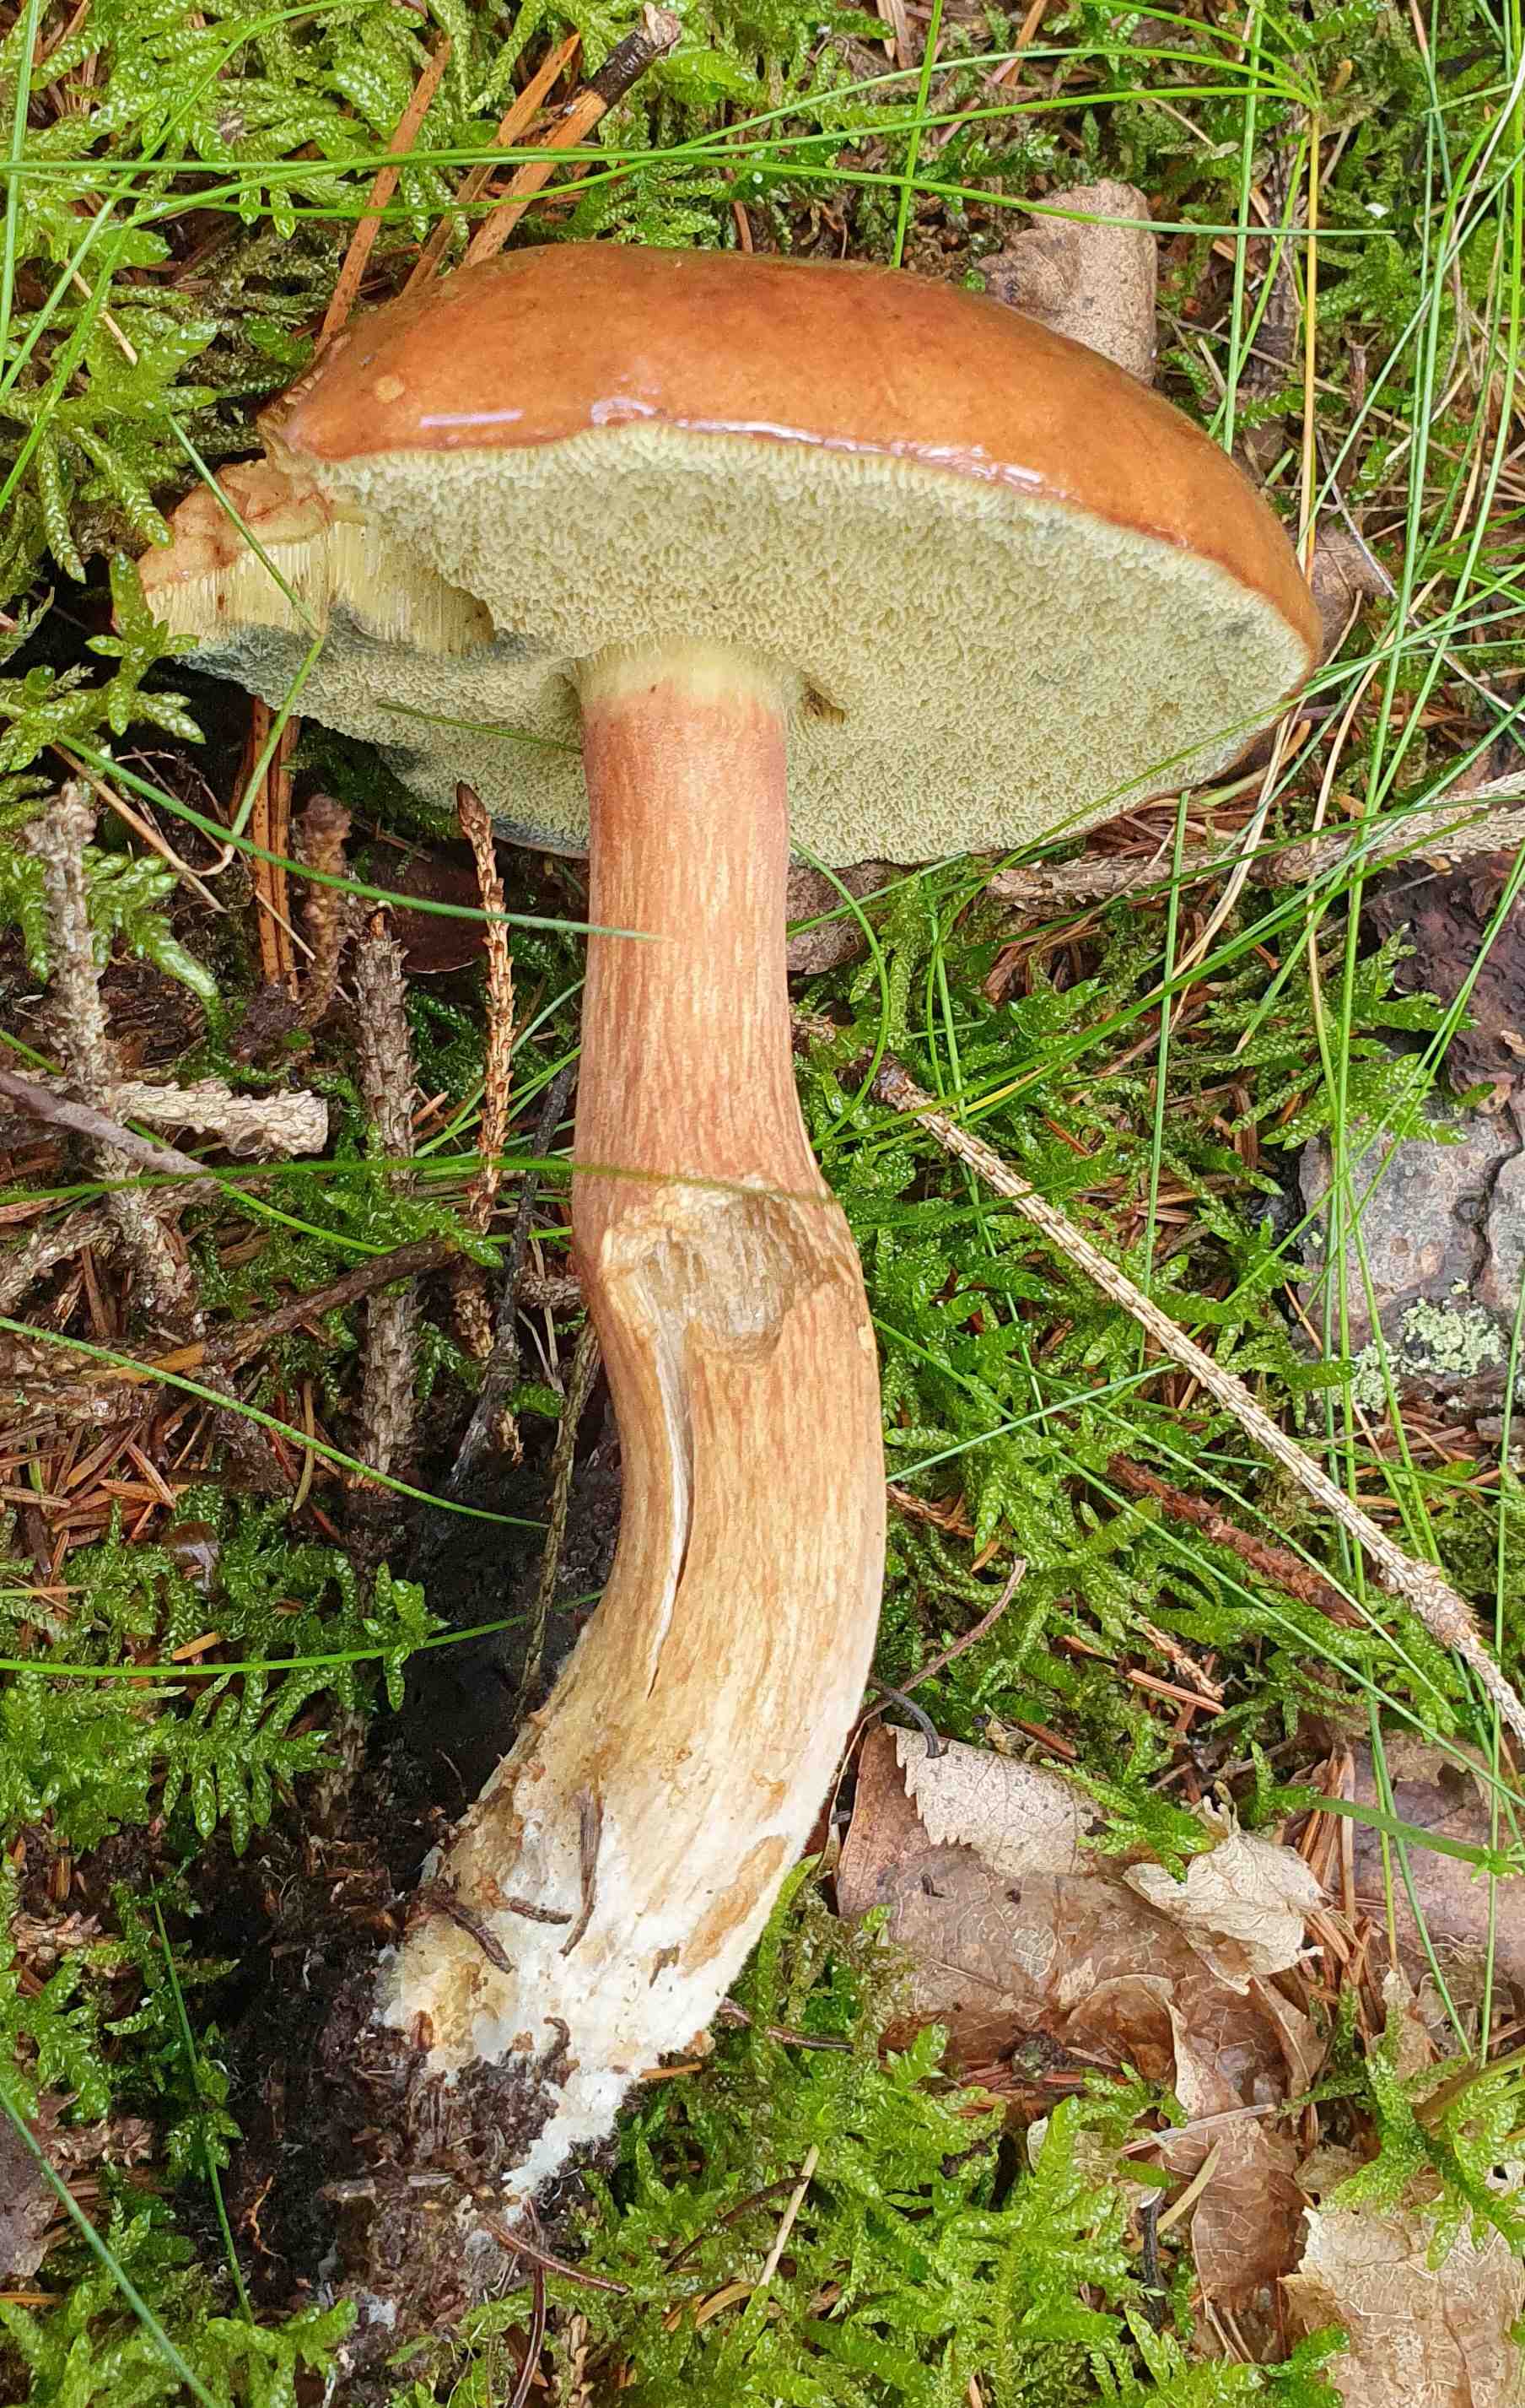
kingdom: Fungi
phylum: Basidiomycota
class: Agaricomycetes
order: Boletales
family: Boletaceae
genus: Imleria
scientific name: Imleria badia
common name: brunstokket rørhat
